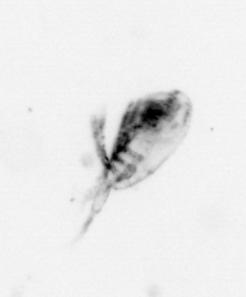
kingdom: Animalia
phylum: Arthropoda
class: Maxillopoda
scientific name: Maxillopoda
